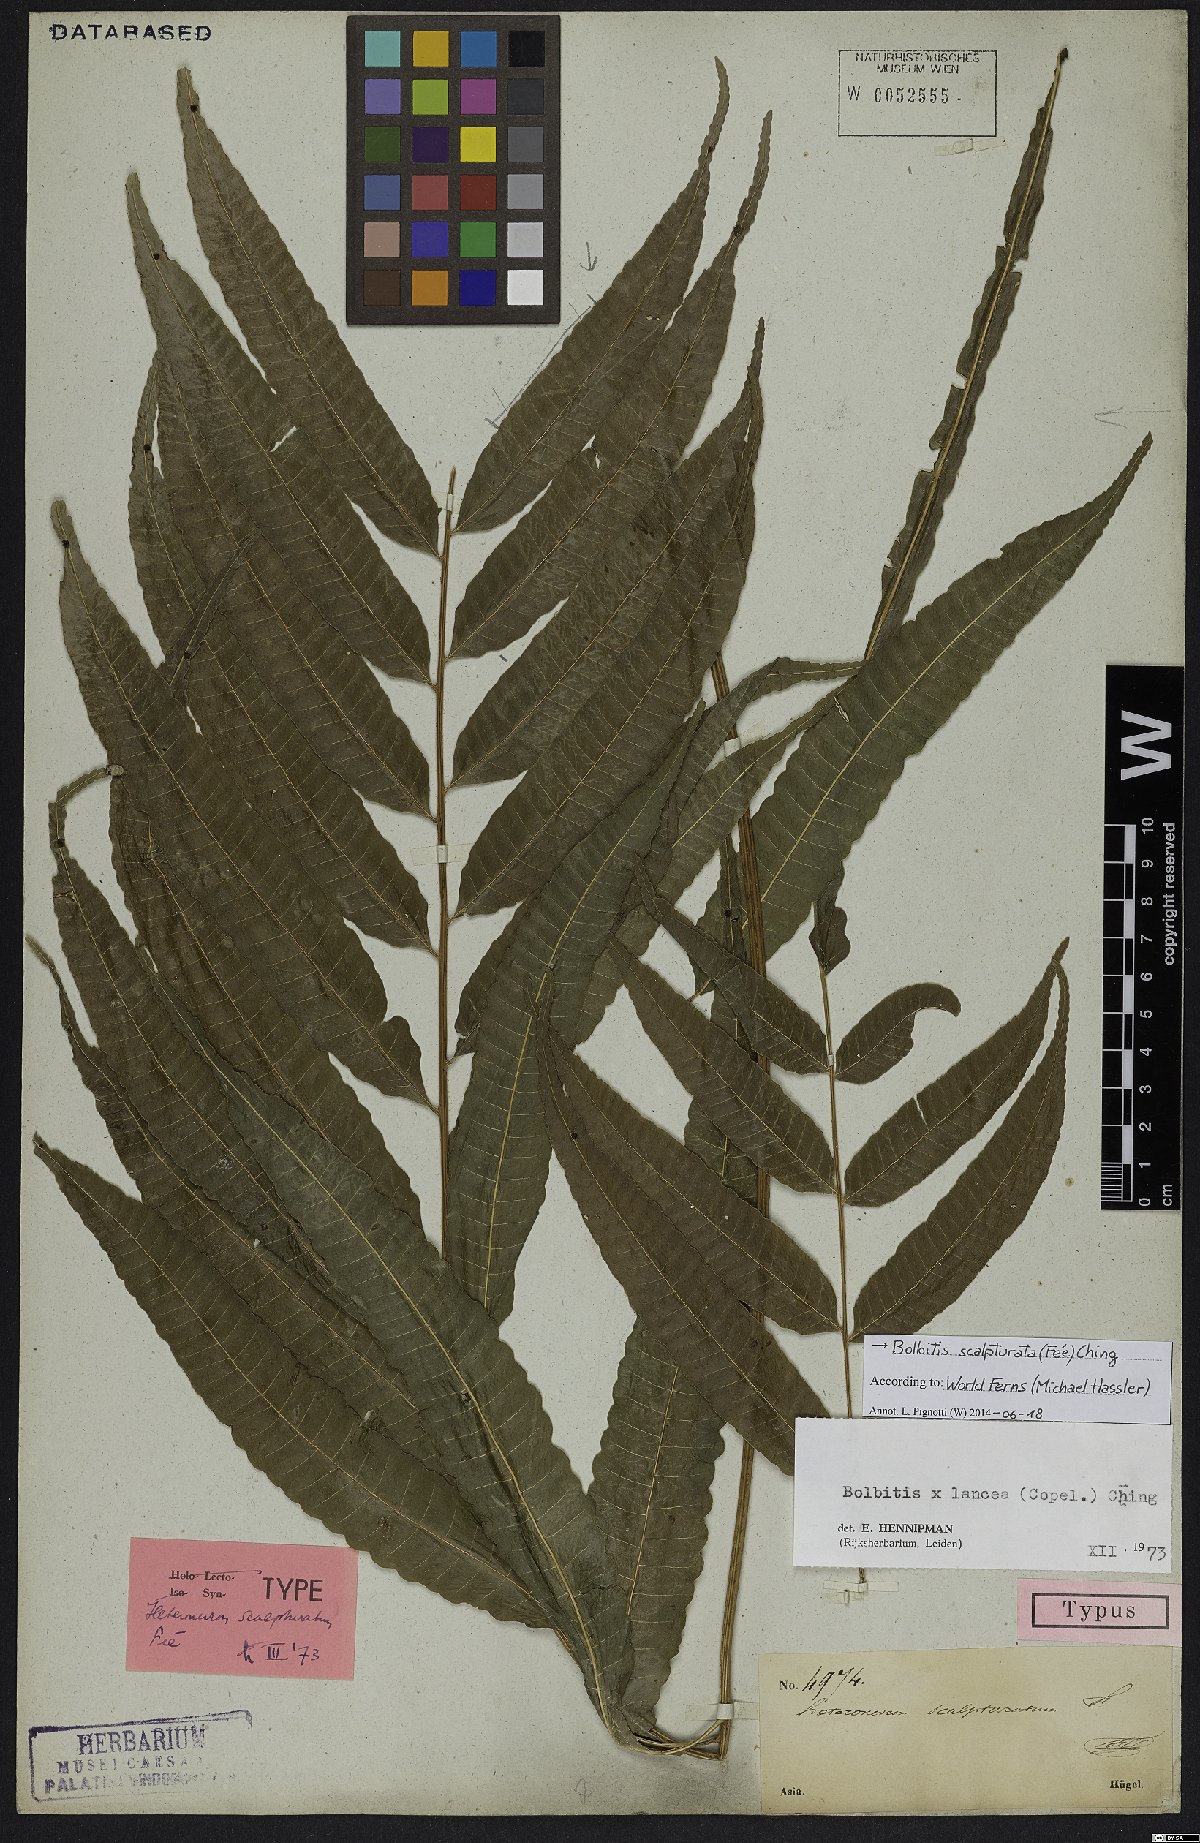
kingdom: Plantae
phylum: Tracheophyta
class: Polypodiopsida
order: Polypodiales
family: Dryopteridaceae
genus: Bolbitis
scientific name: Bolbitis scalpturata
